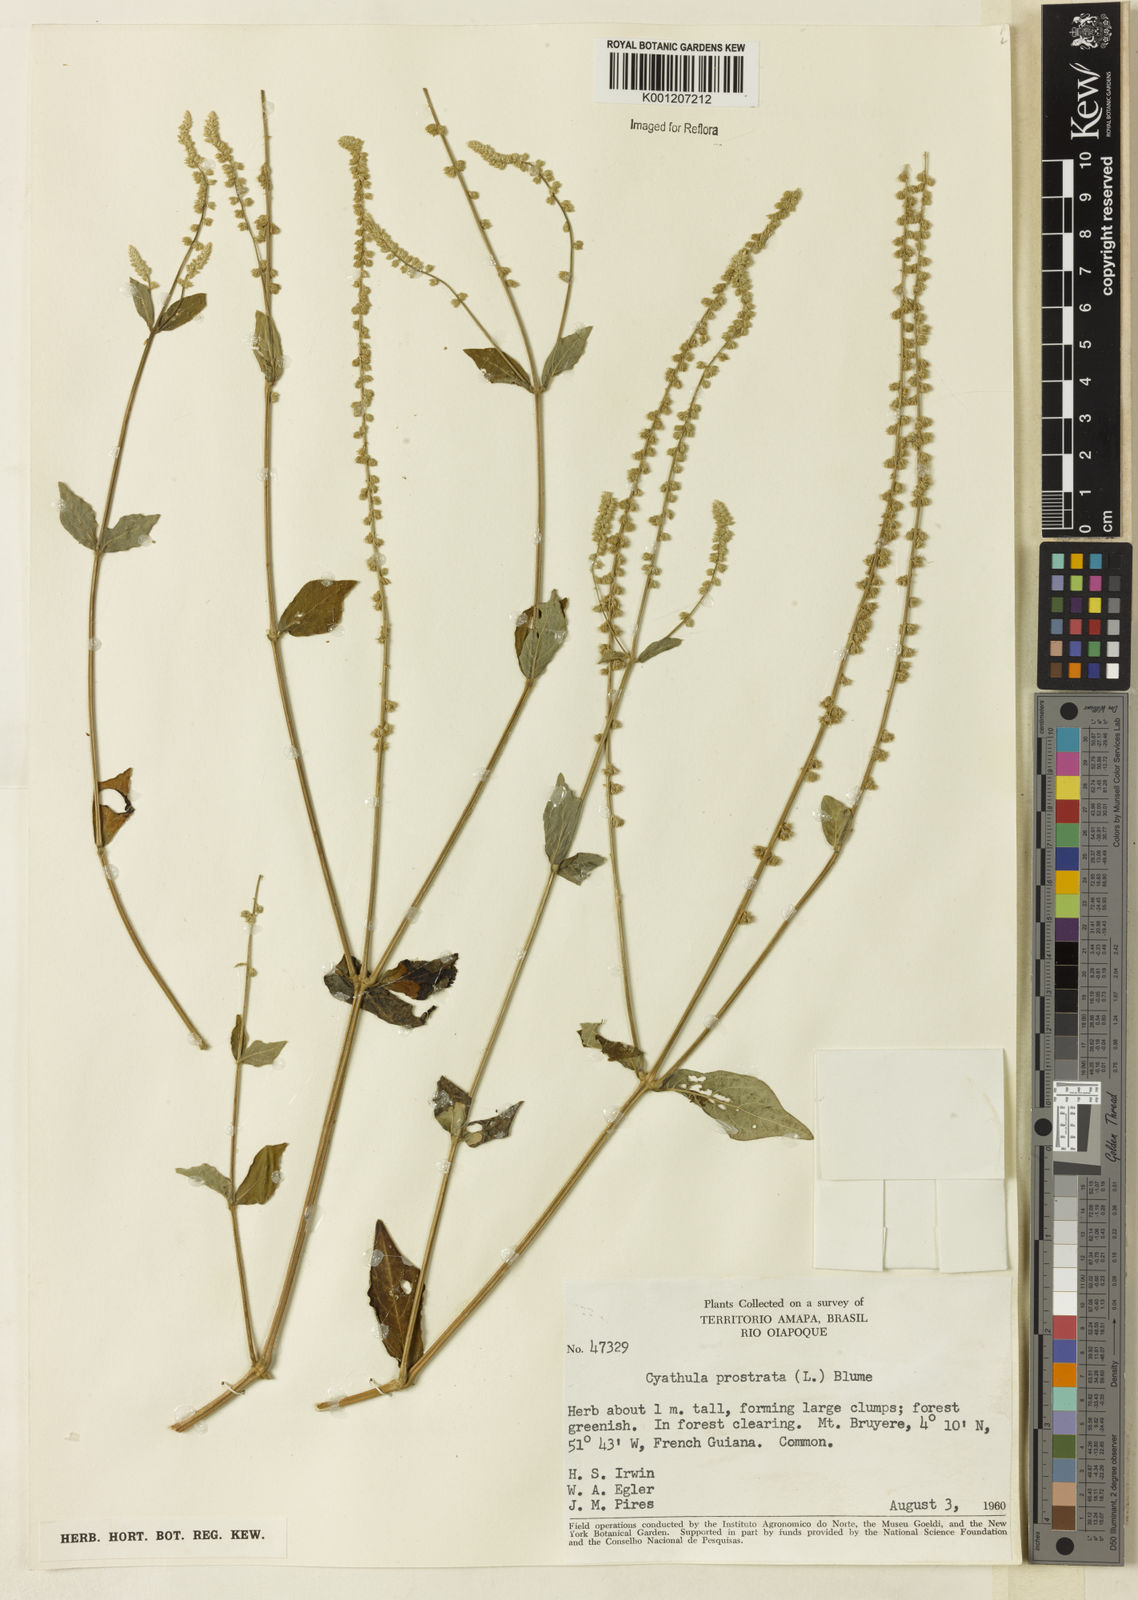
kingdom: Plantae
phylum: Tracheophyta
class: Magnoliopsida
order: Caryophyllales
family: Amaranthaceae
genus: Cyathula
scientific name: Cyathula prostrata
